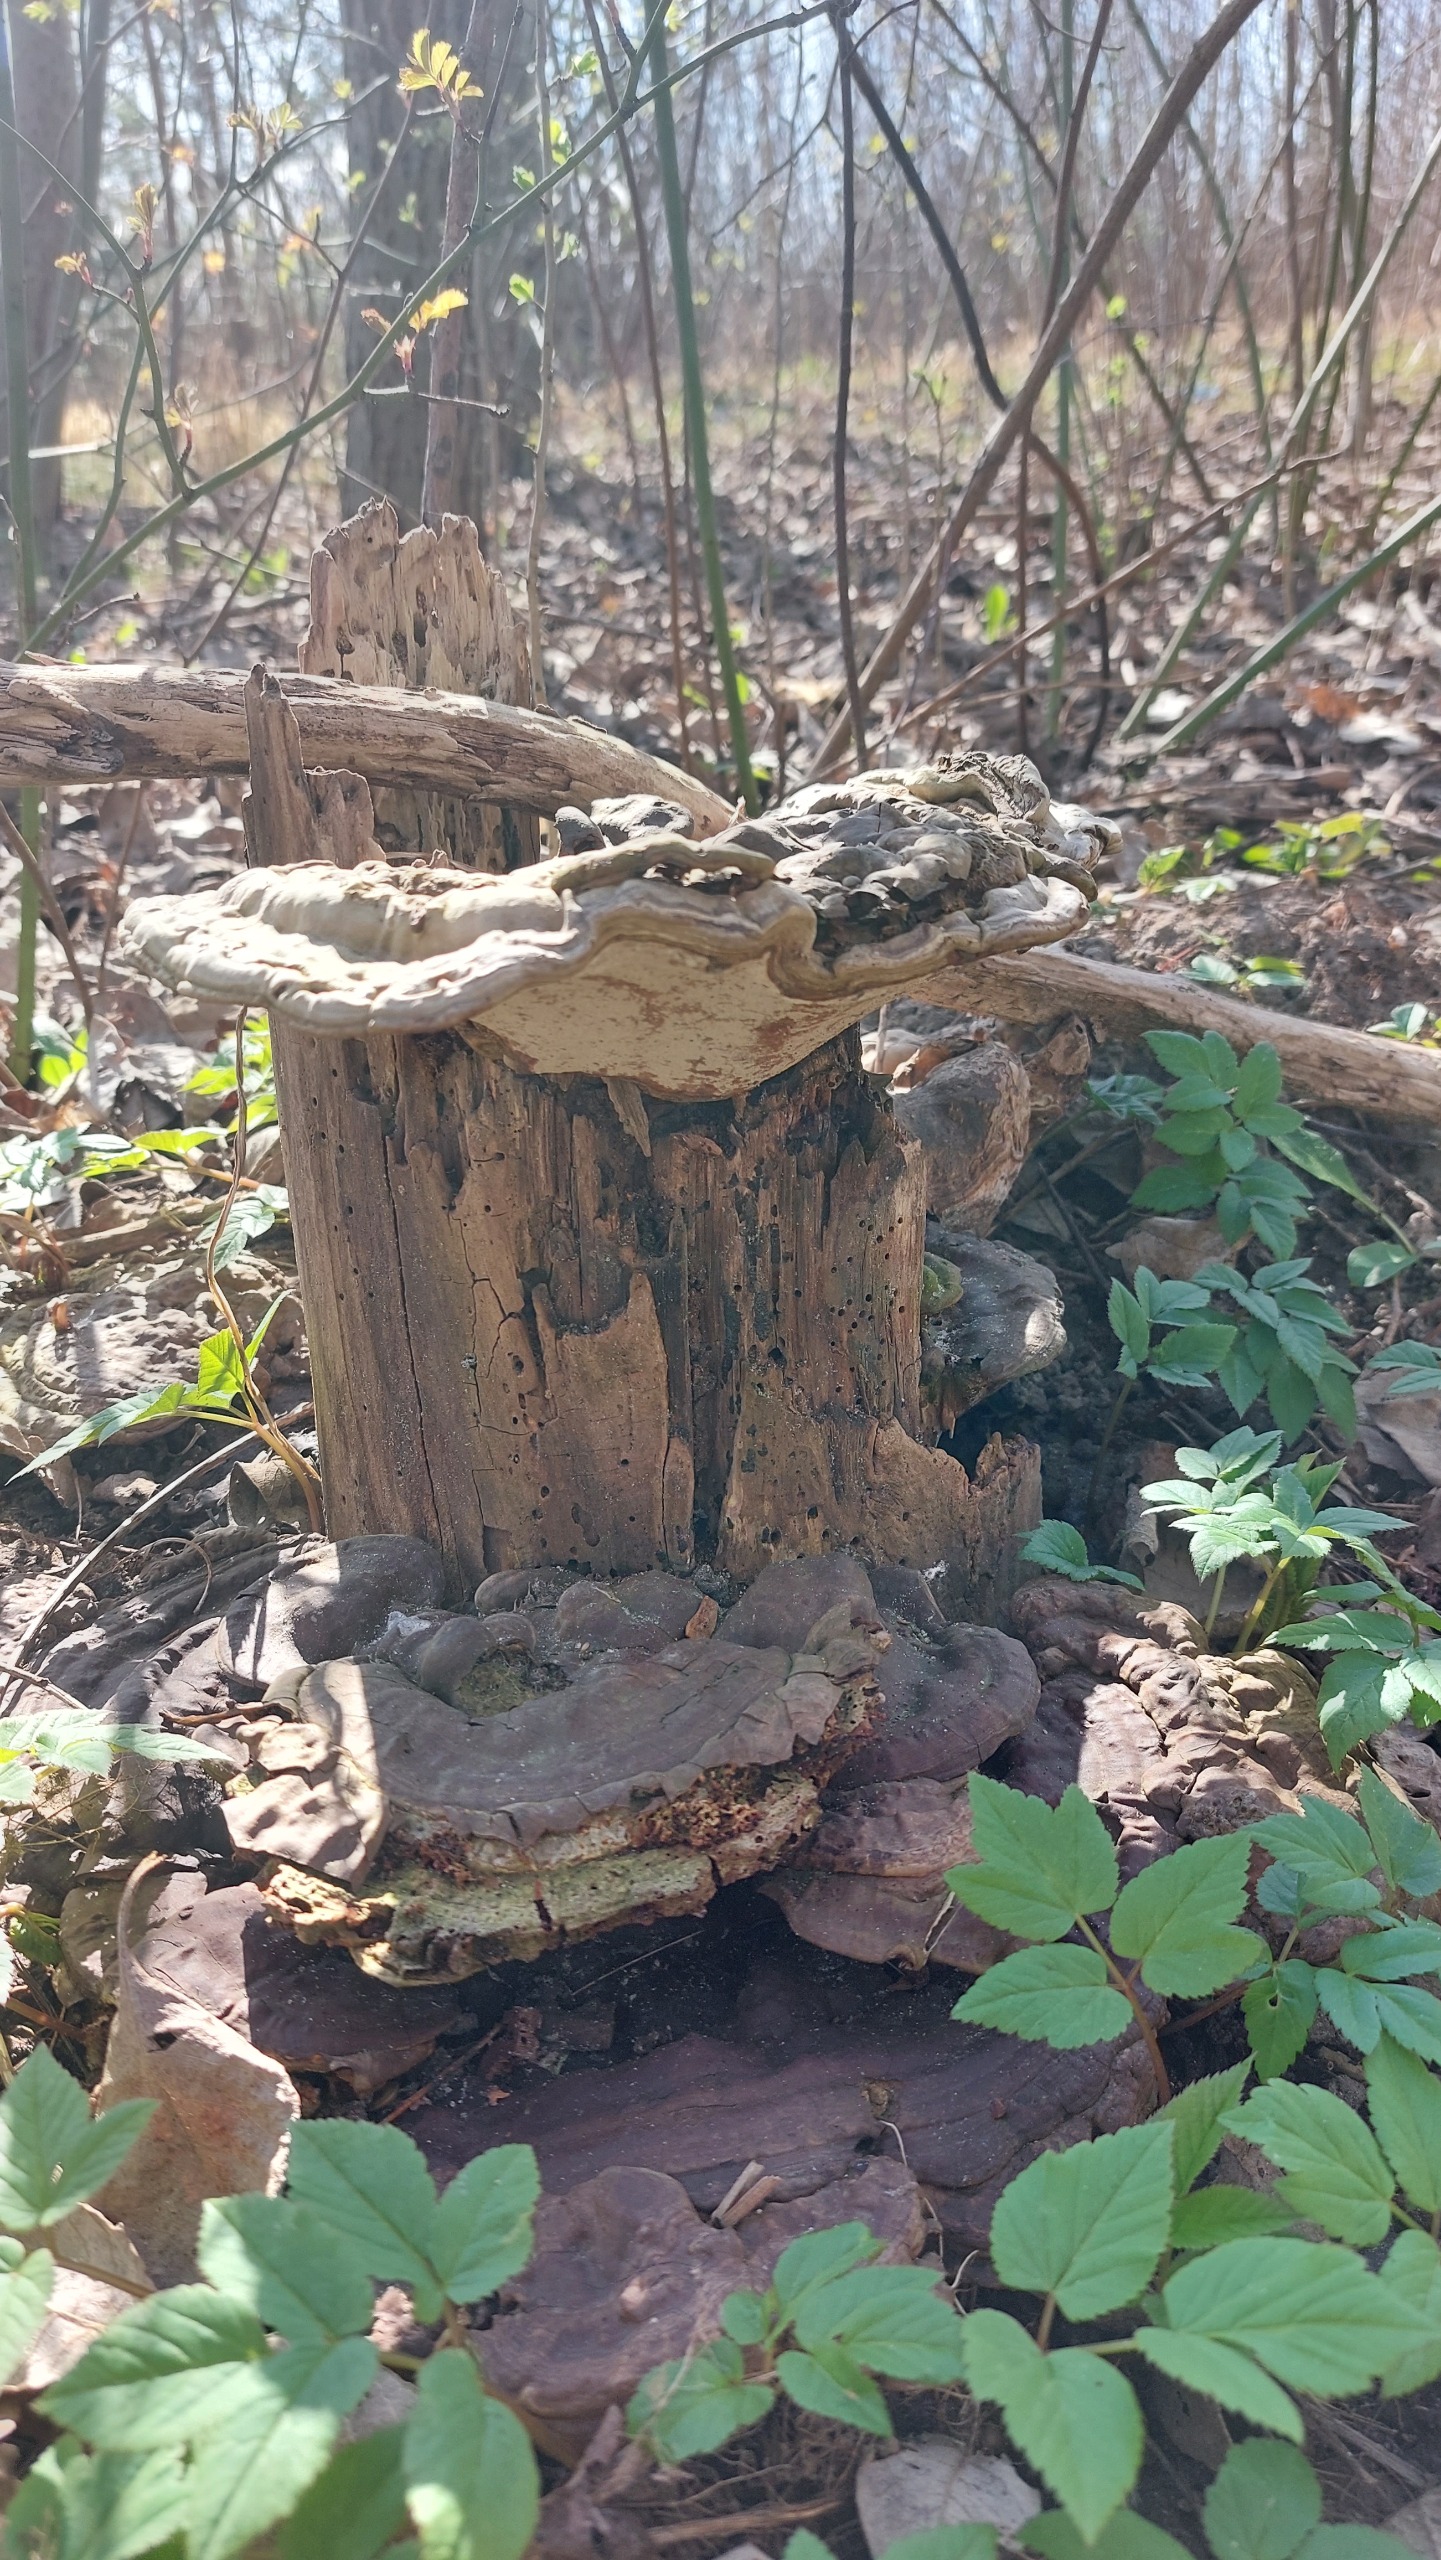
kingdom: Fungi
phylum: Basidiomycota
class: Agaricomycetes
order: Polyporales
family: Polyporaceae
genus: Ganoderma
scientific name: Ganoderma applanatum
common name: Flad lakporesvamp
